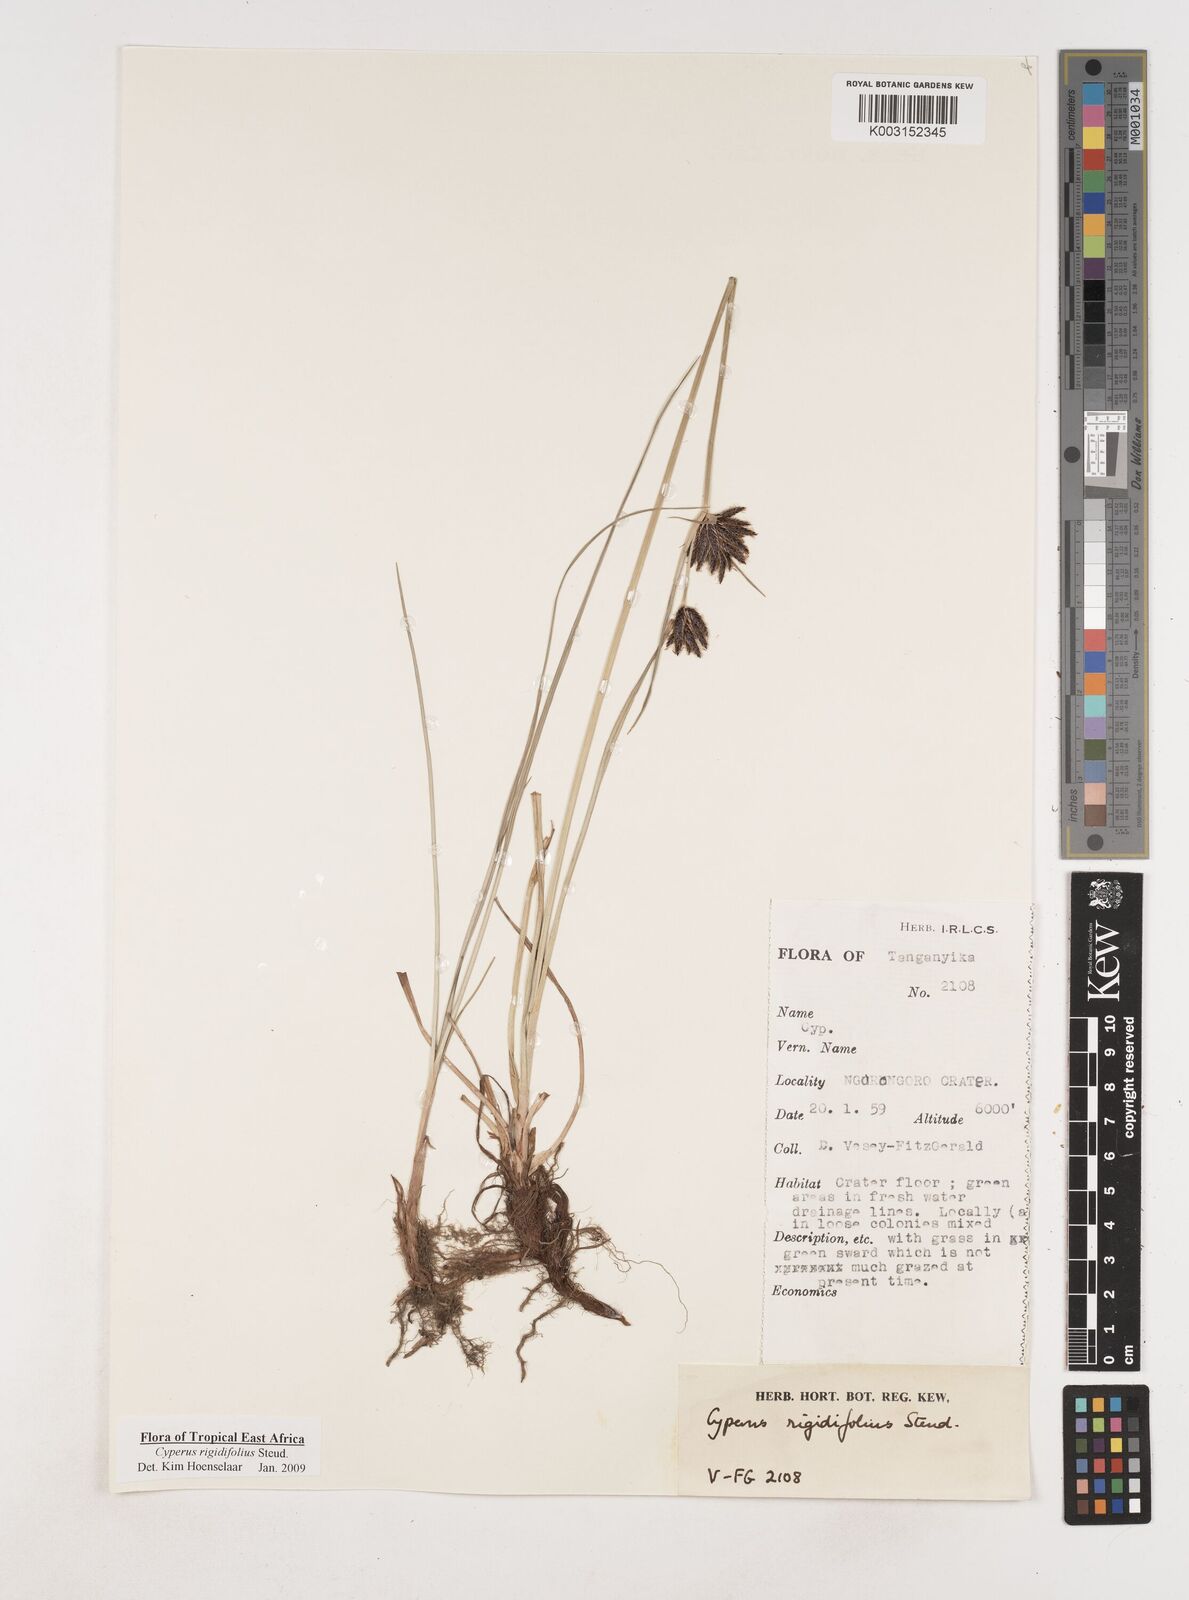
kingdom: Plantae
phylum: Tracheophyta
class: Liliopsida
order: Poales
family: Cyperaceae
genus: Cyperus
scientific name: Cyperus rigidifolius
